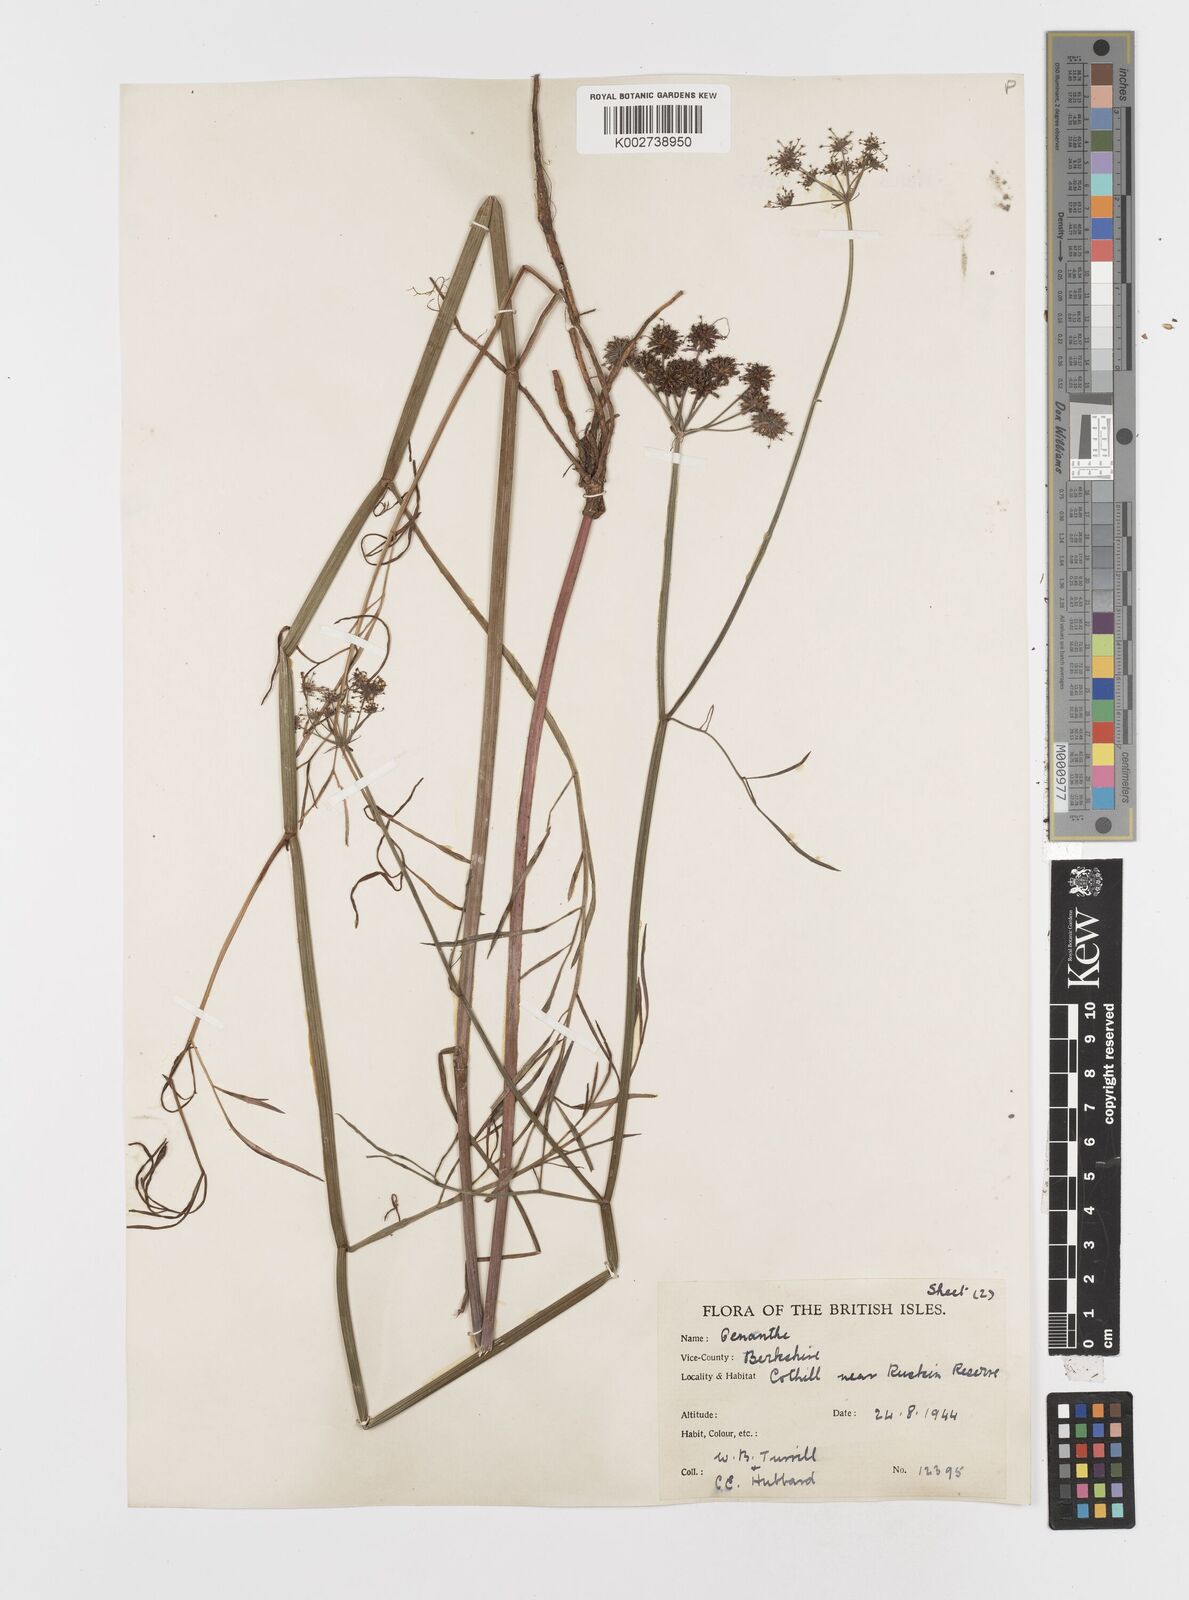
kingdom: Plantae
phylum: Tracheophyta
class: Magnoliopsida
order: Apiales
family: Apiaceae
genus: Oenanthe
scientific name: Oenanthe lachenalii
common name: Parsley water-dropwort
